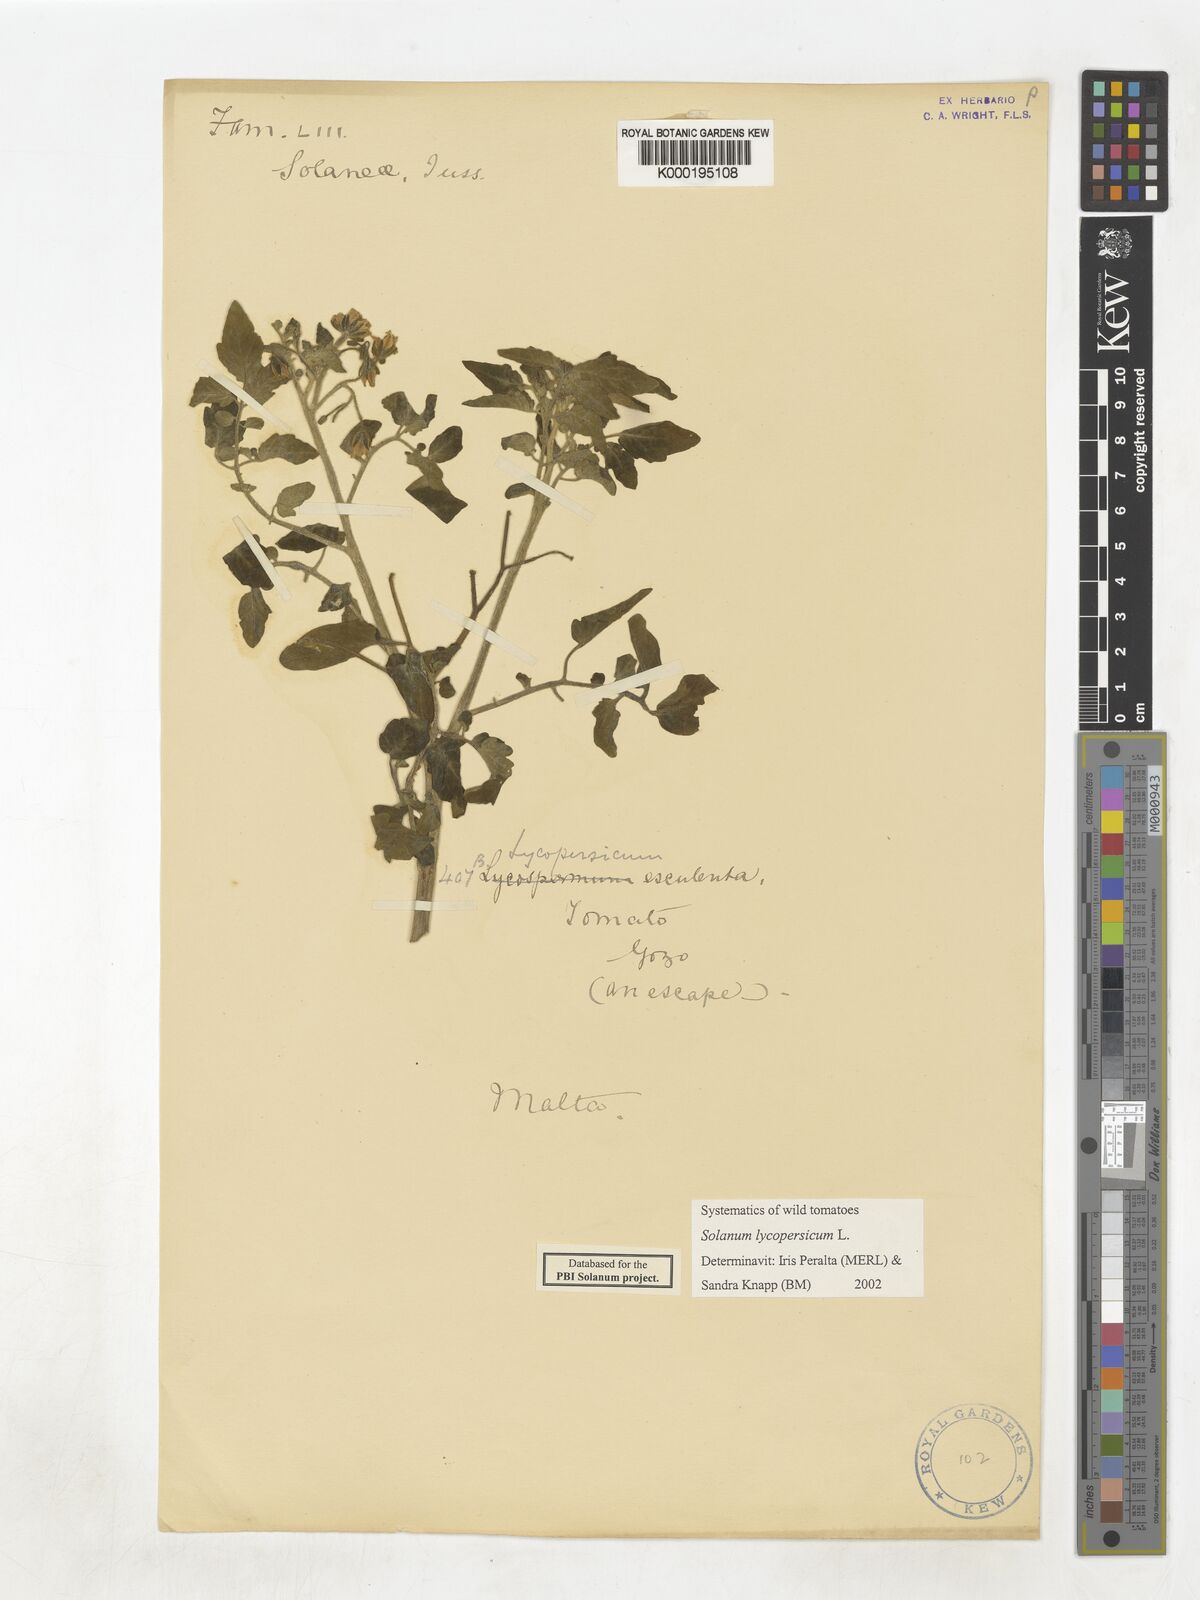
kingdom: Plantae
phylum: Tracheophyta
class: Magnoliopsida
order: Solanales
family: Solanaceae
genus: Solanum
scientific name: Solanum lycopersicum
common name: Garden tomato
